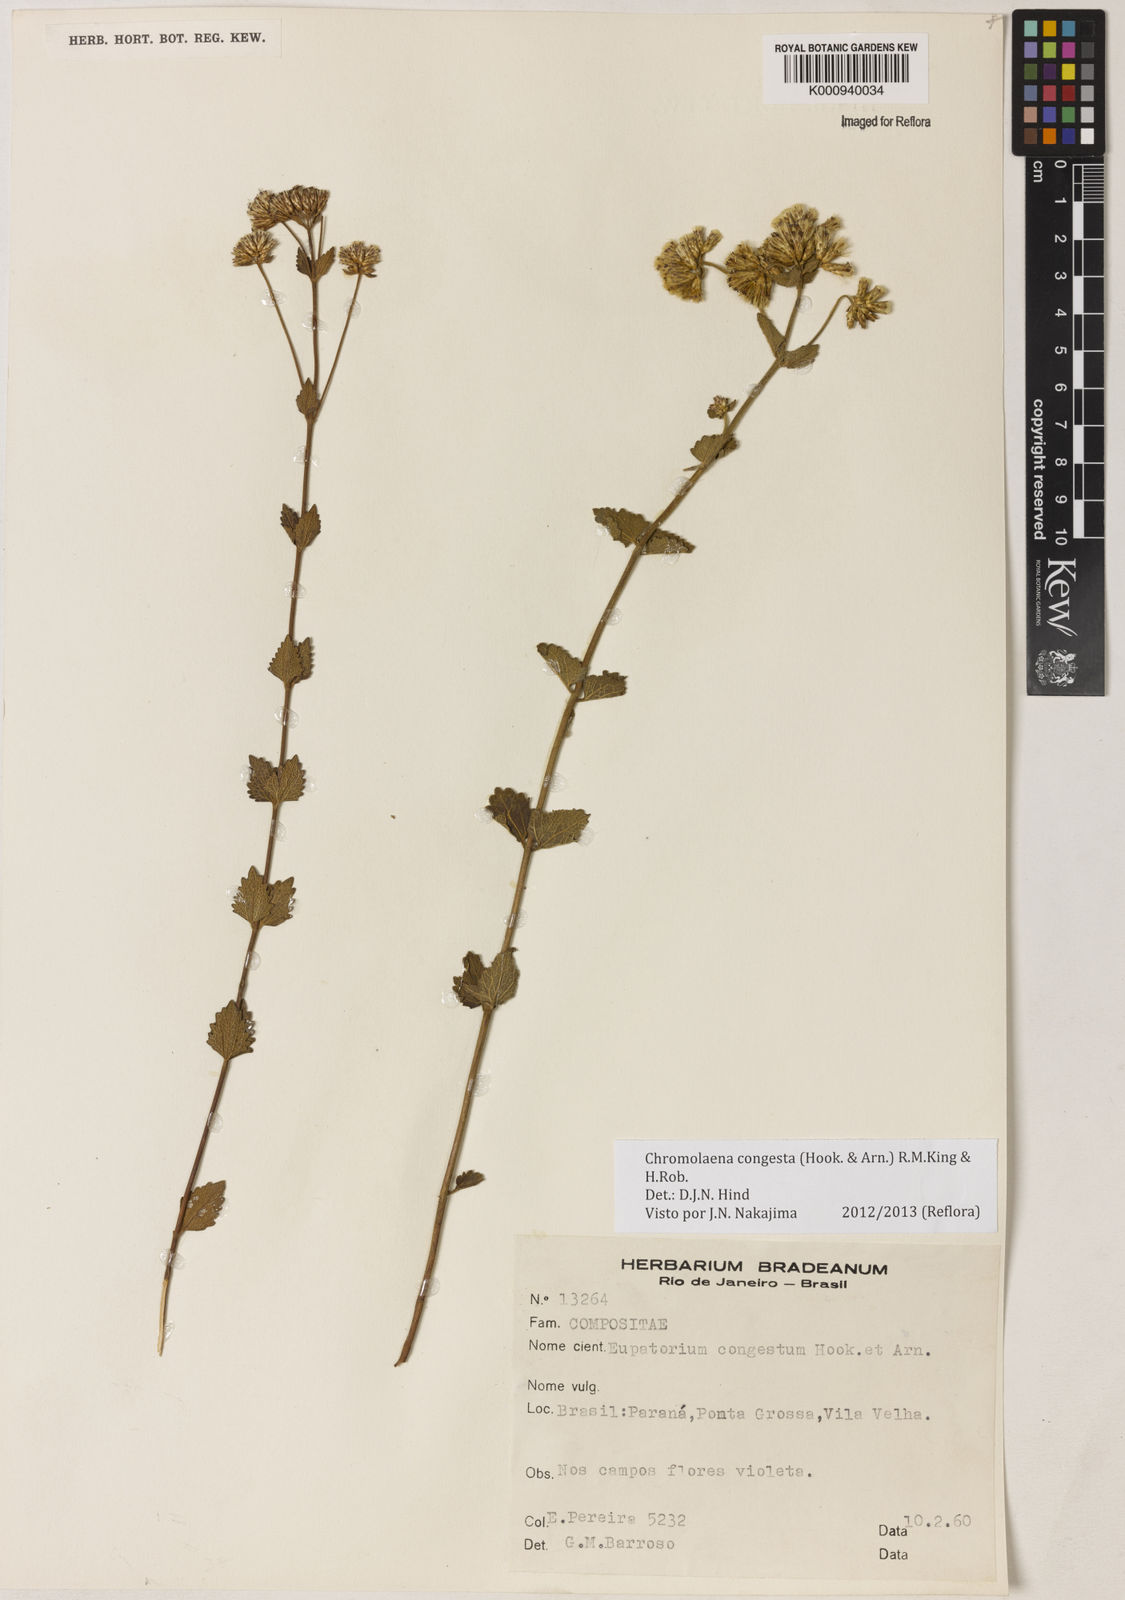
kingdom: Plantae
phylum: Tracheophyta
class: Magnoliopsida
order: Asterales
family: Asteraceae
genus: Chromolaena
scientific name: Chromolaena congesta
